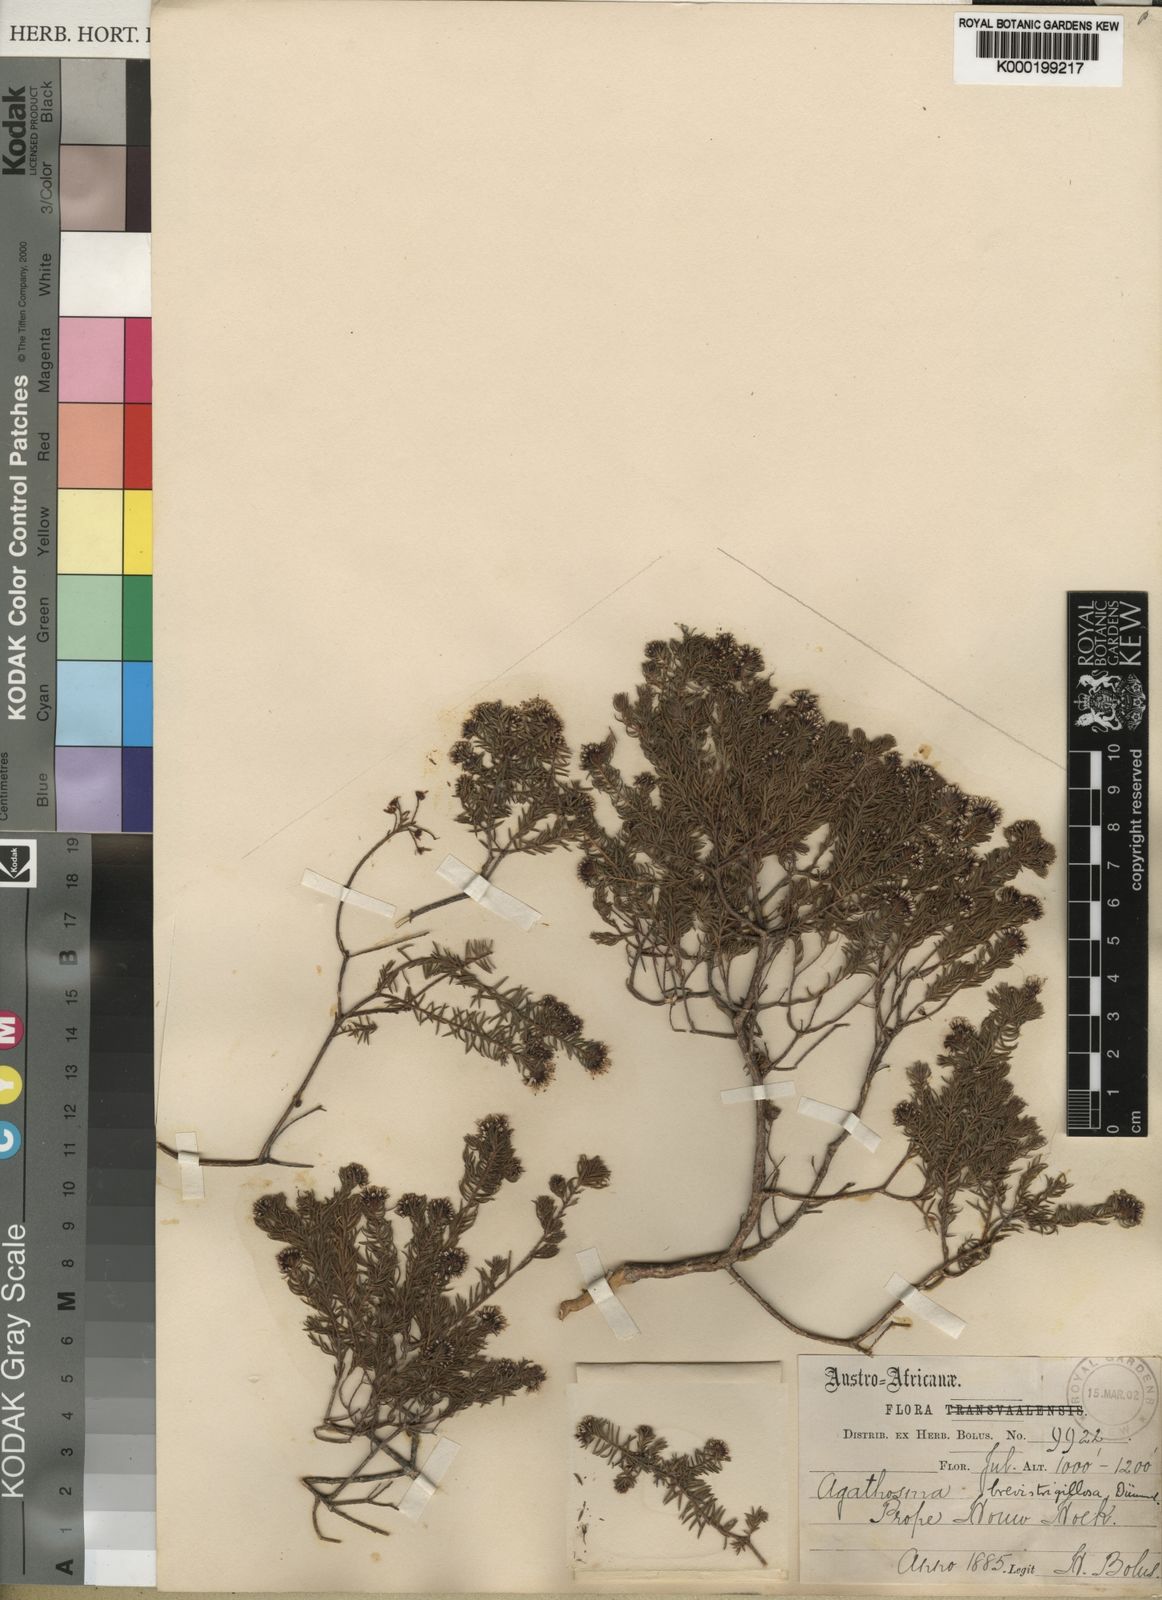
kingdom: Plantae
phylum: Tracheophyta
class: Magnoliopsida
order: Sapindales
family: Rutaceae
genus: Agathosma
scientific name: Agathosma
